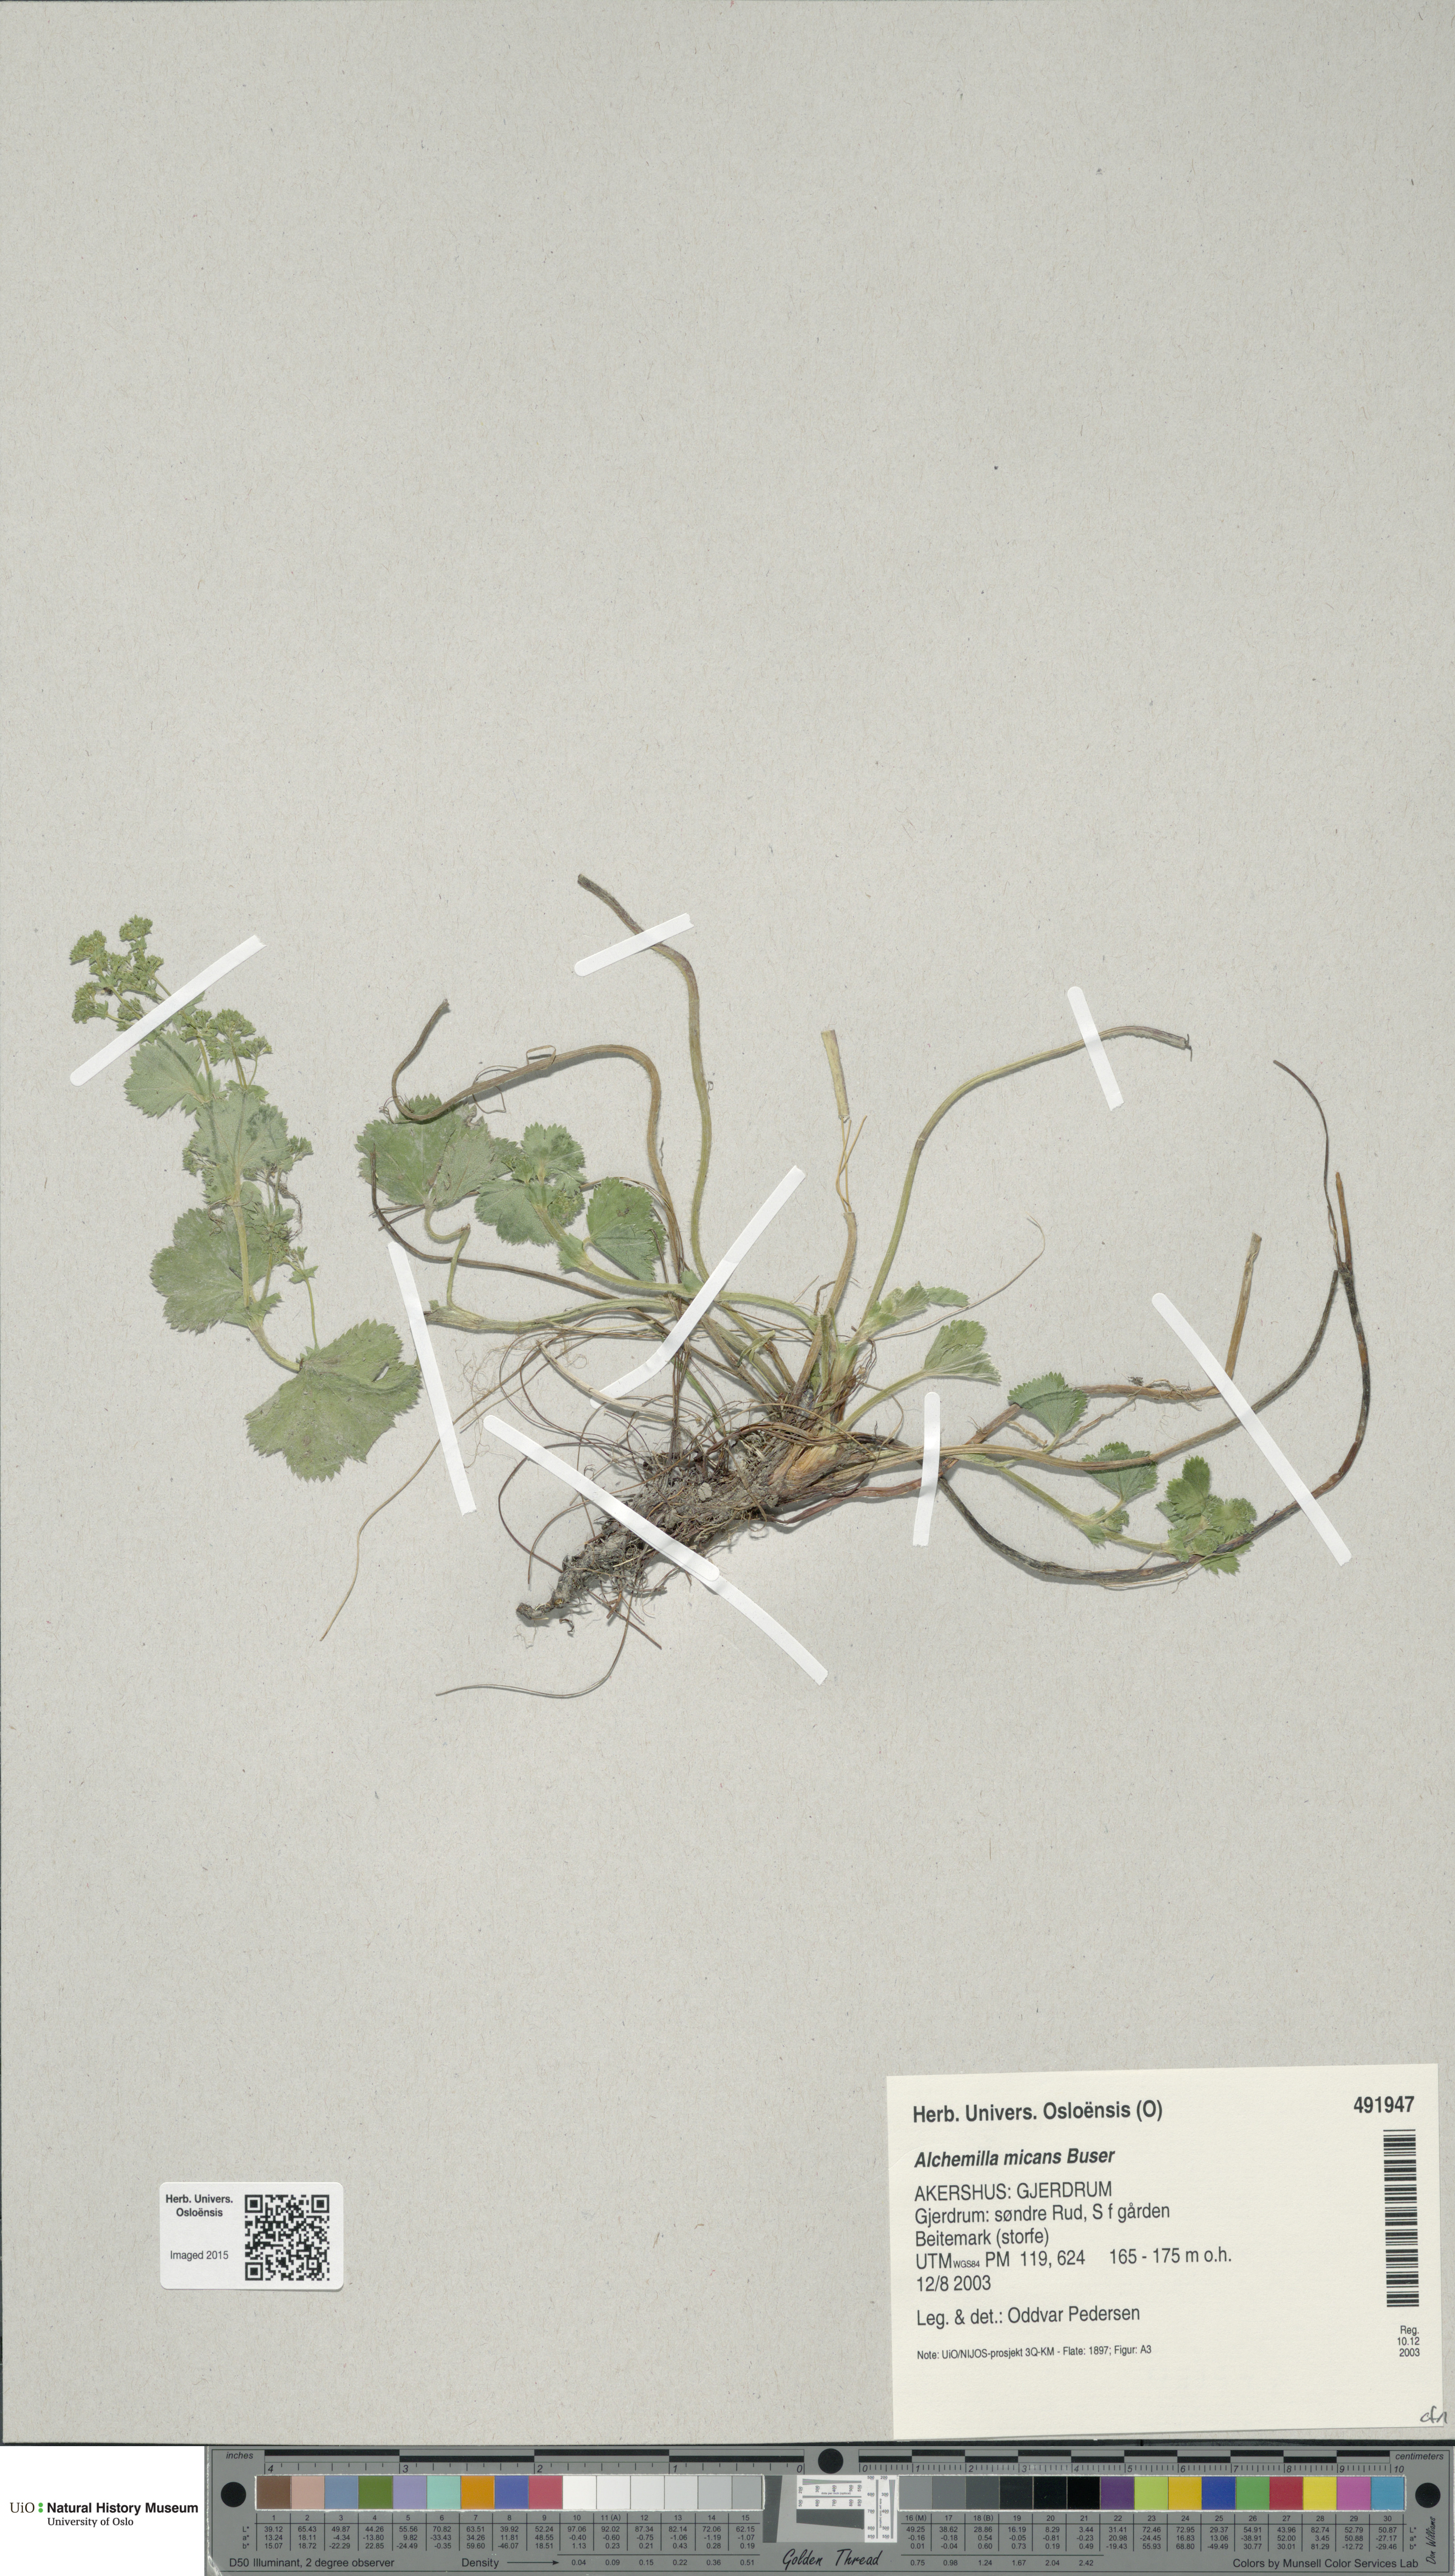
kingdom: Plantae
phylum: Tracheophyta
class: Magnoliopsida
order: Rosales
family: Rosaceae
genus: Alchemilla
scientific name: Alchemilla micans
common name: Gleaming lady's mantle
